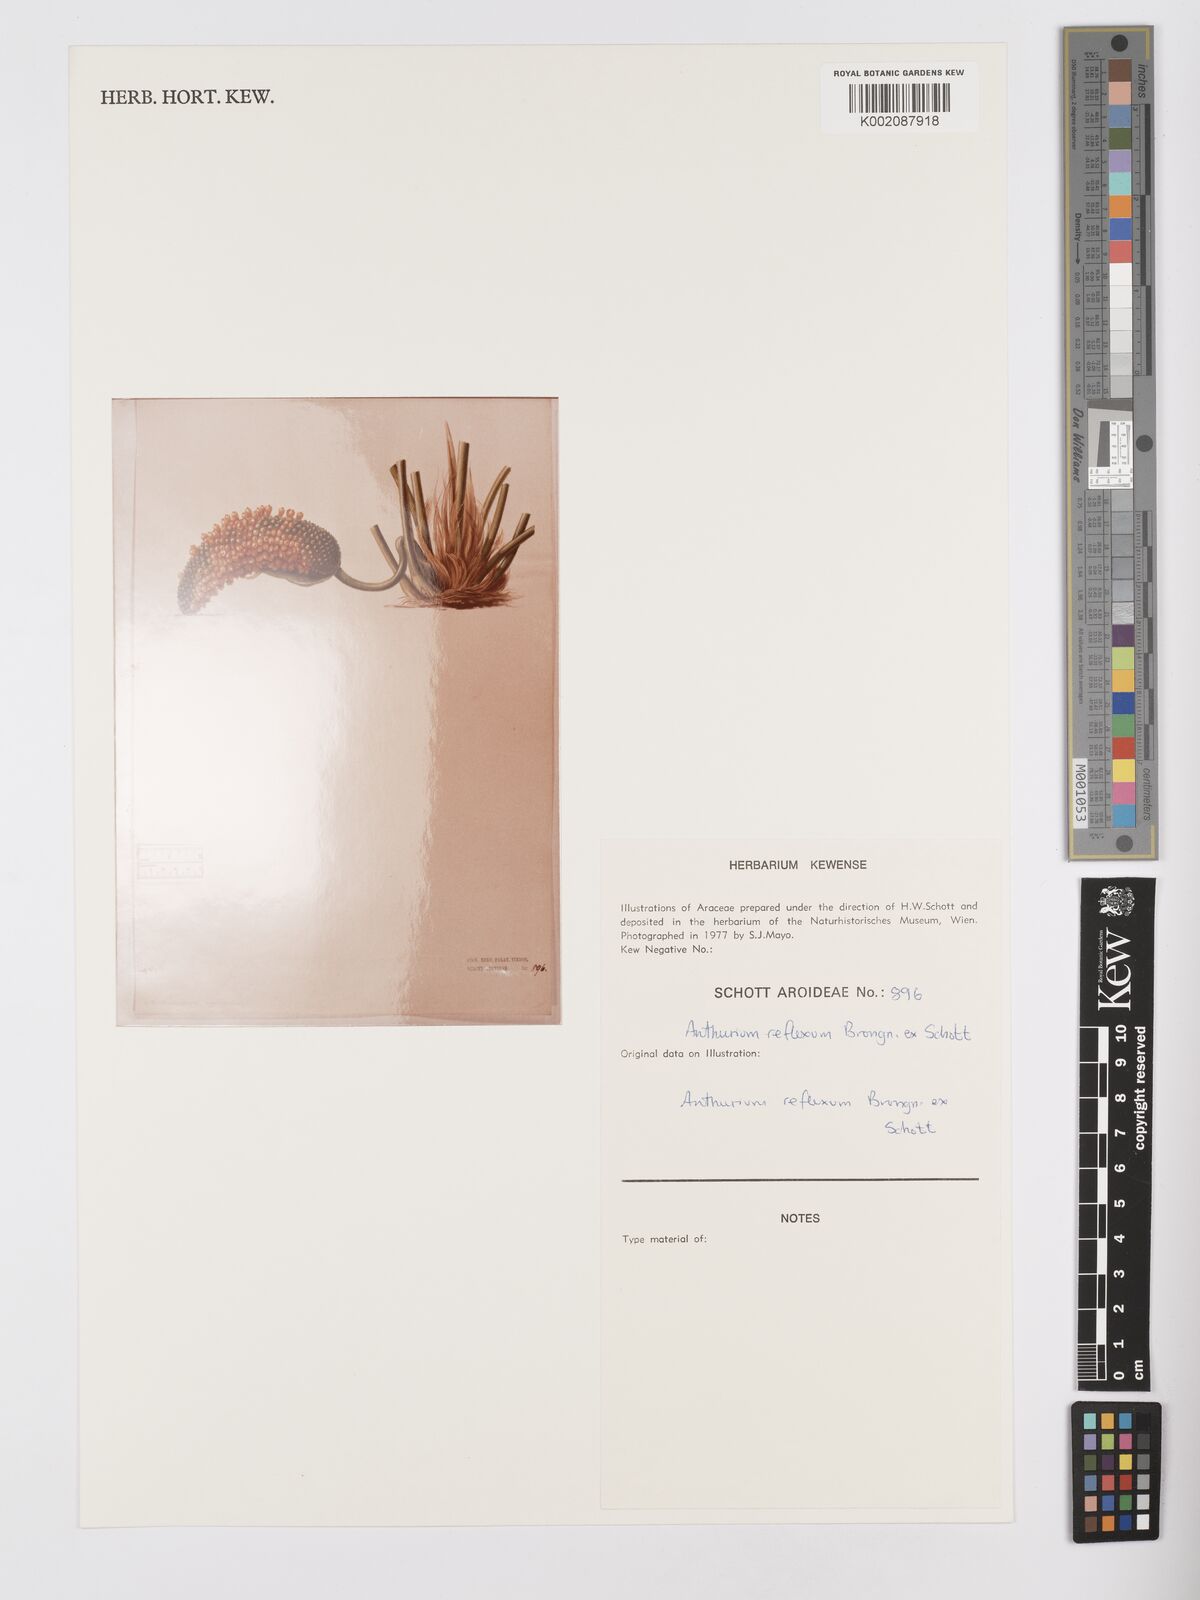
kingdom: Plantae
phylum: Tracheophyta
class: Liliopsida
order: Alismatales
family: Araceae
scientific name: Araceae
